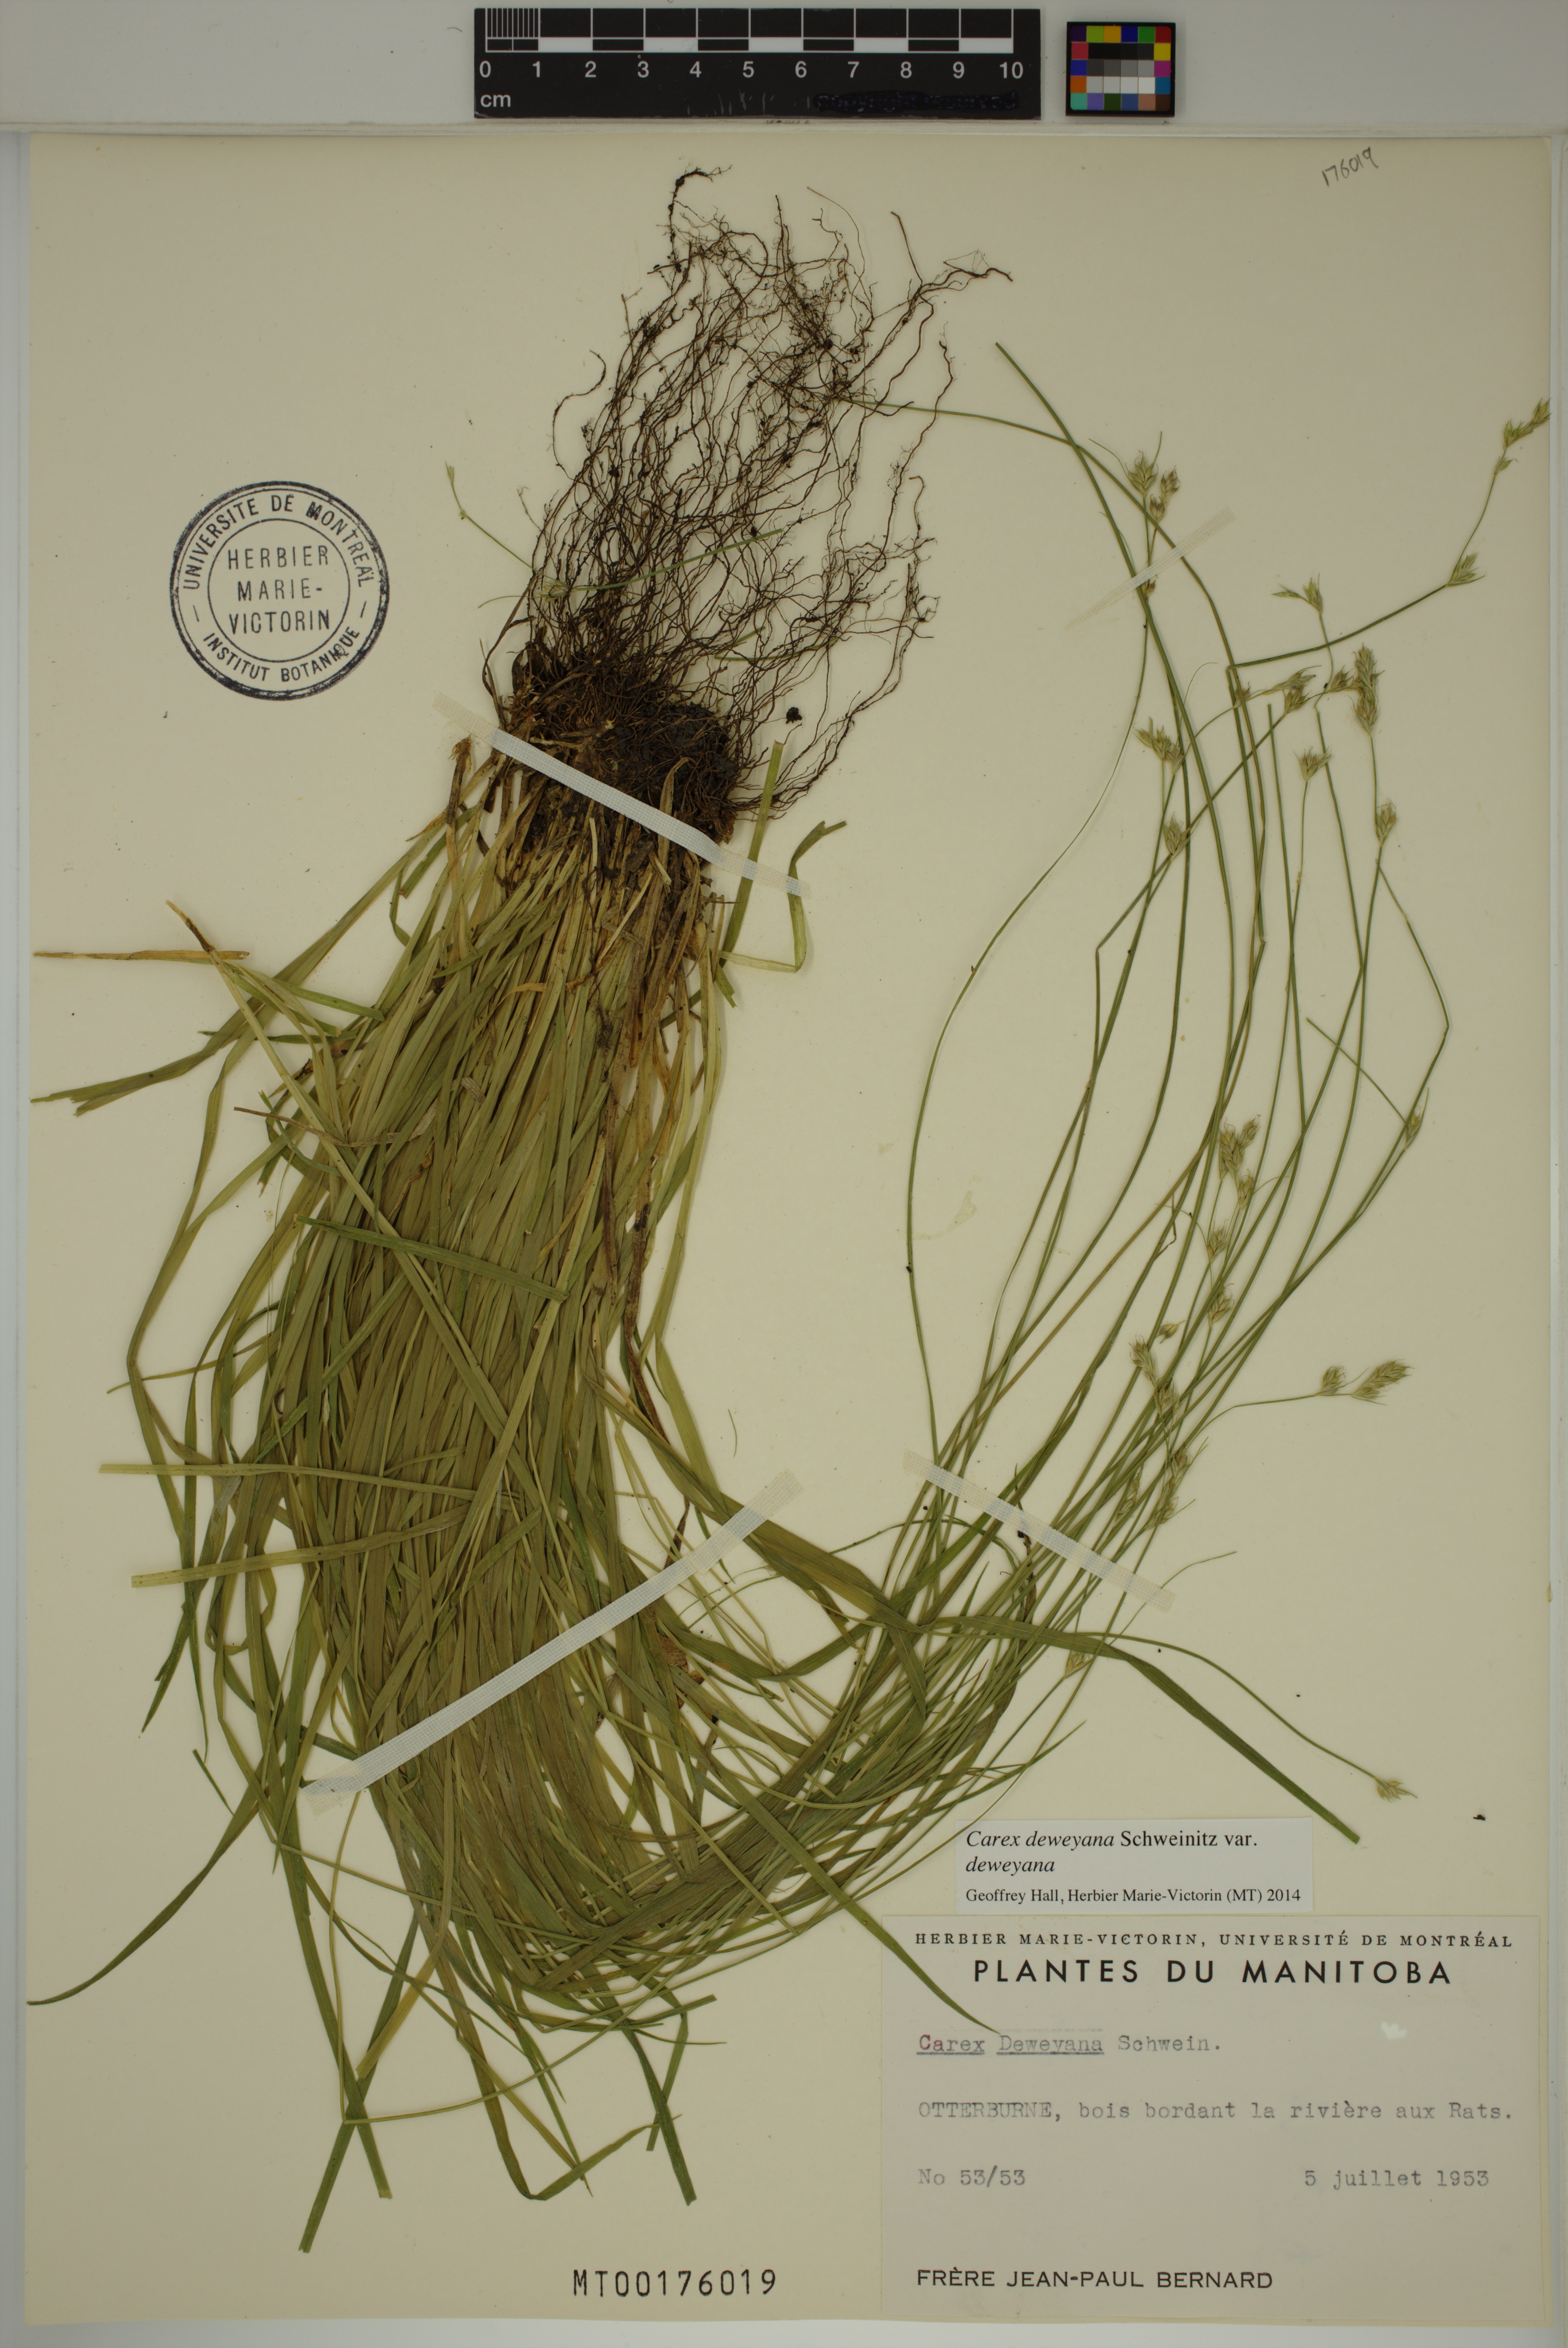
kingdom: Plantae
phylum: Tracheophyta
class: Liliopsida
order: Poales
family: Cyperaceae
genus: Carex
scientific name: Carex deweyana
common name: Dewey's sedge
